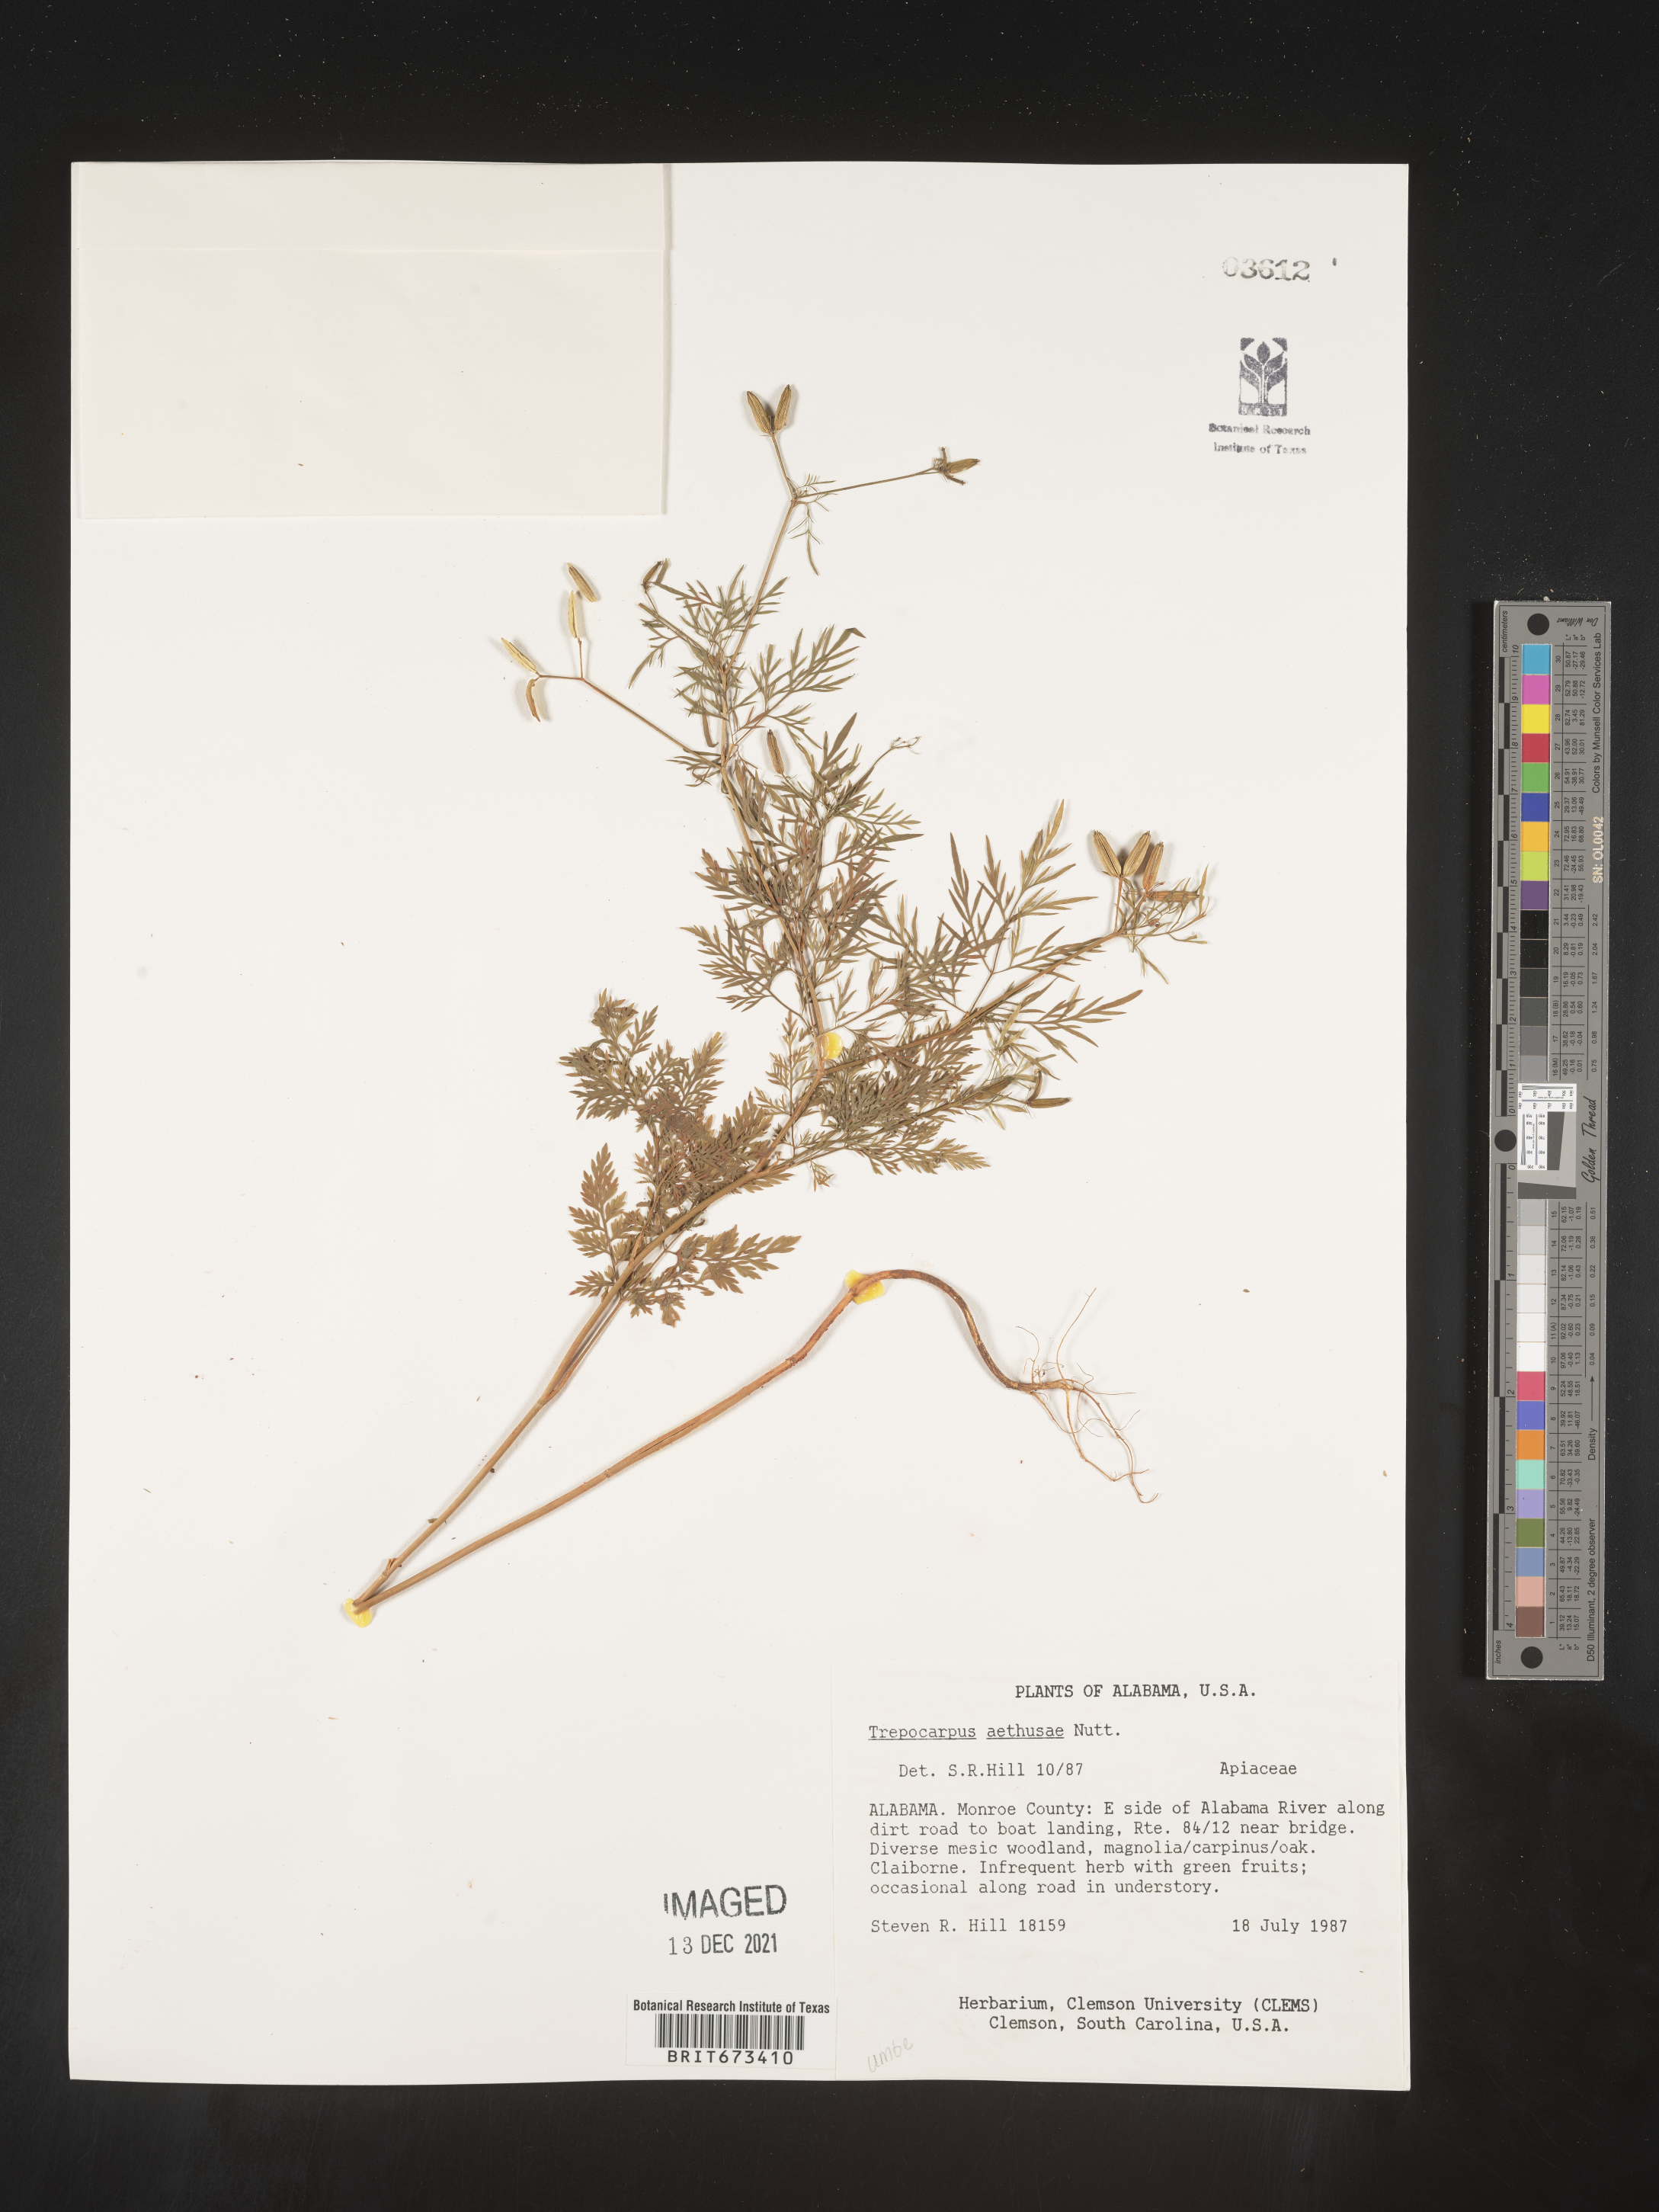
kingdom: Plantae
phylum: Tracheophyta
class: Magnoliopsida
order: Apiales
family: Apiaceae
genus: Trepocarpus
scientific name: Trepocarpus aethusae
